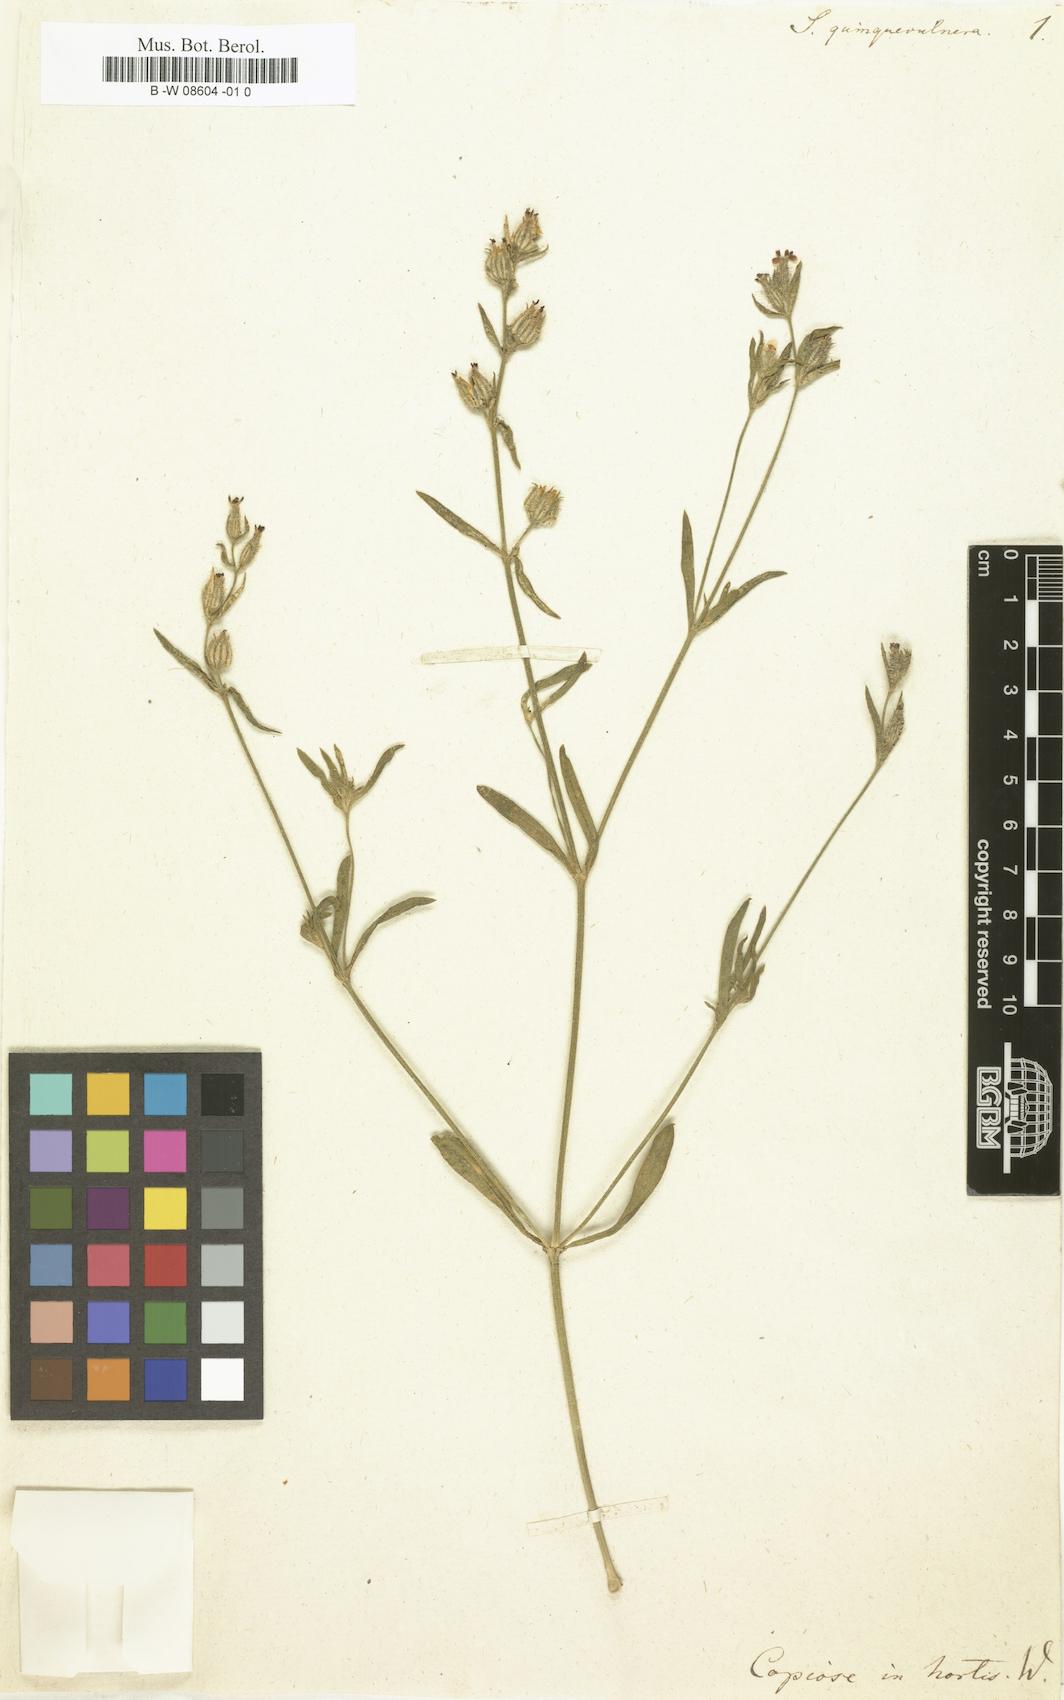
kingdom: Plantae
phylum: Tracheophyta
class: Magnoliopsida
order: Caryophyllales
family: Caryophyllaceae
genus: Silene
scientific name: Silene gallica
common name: Small-flowered catchfly
